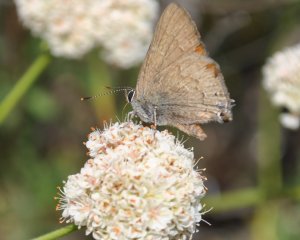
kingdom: Animalia
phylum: Arthropoda
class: Insecta
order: Lepidoptera
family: Lycaenidae
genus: Strymon
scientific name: Strymon saepium
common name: Hedgerow Hairstreak
